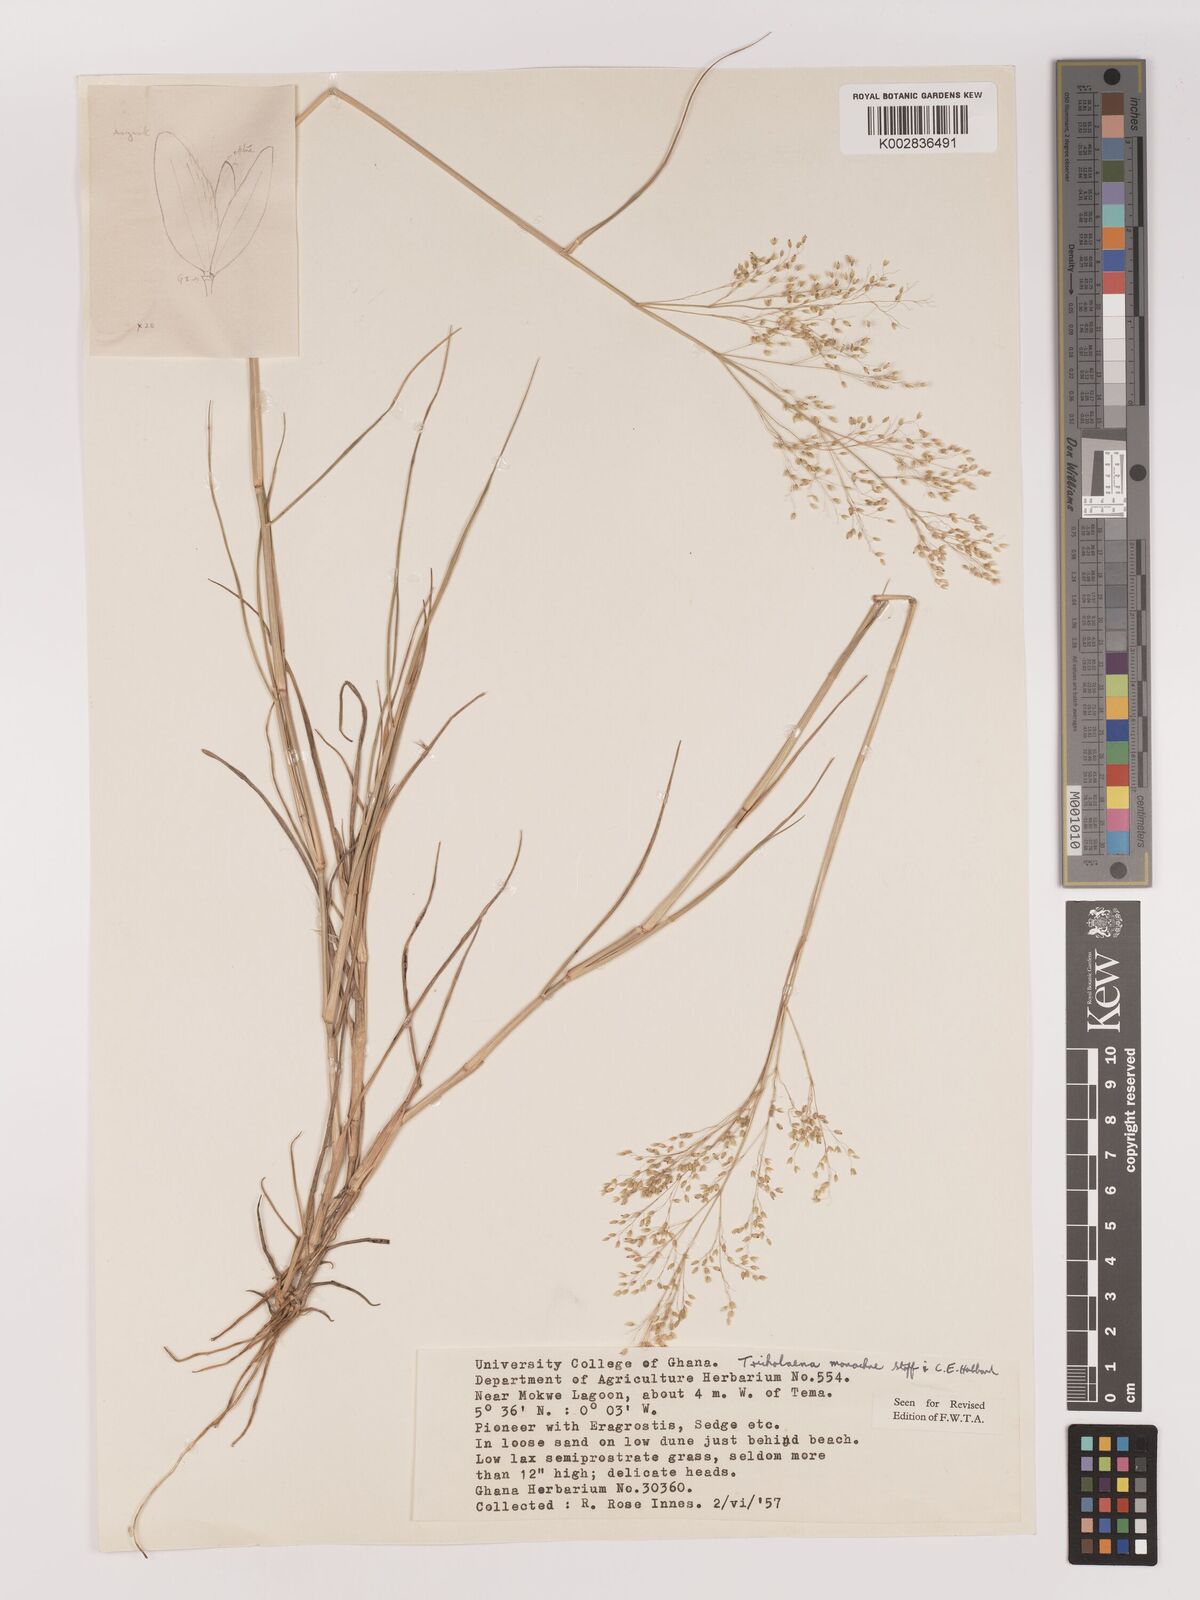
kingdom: Plantae
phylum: Tracheophyta
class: Liliopsida
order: Poales
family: Poaceae
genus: Tricholaena
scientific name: Tricholaena monachne
